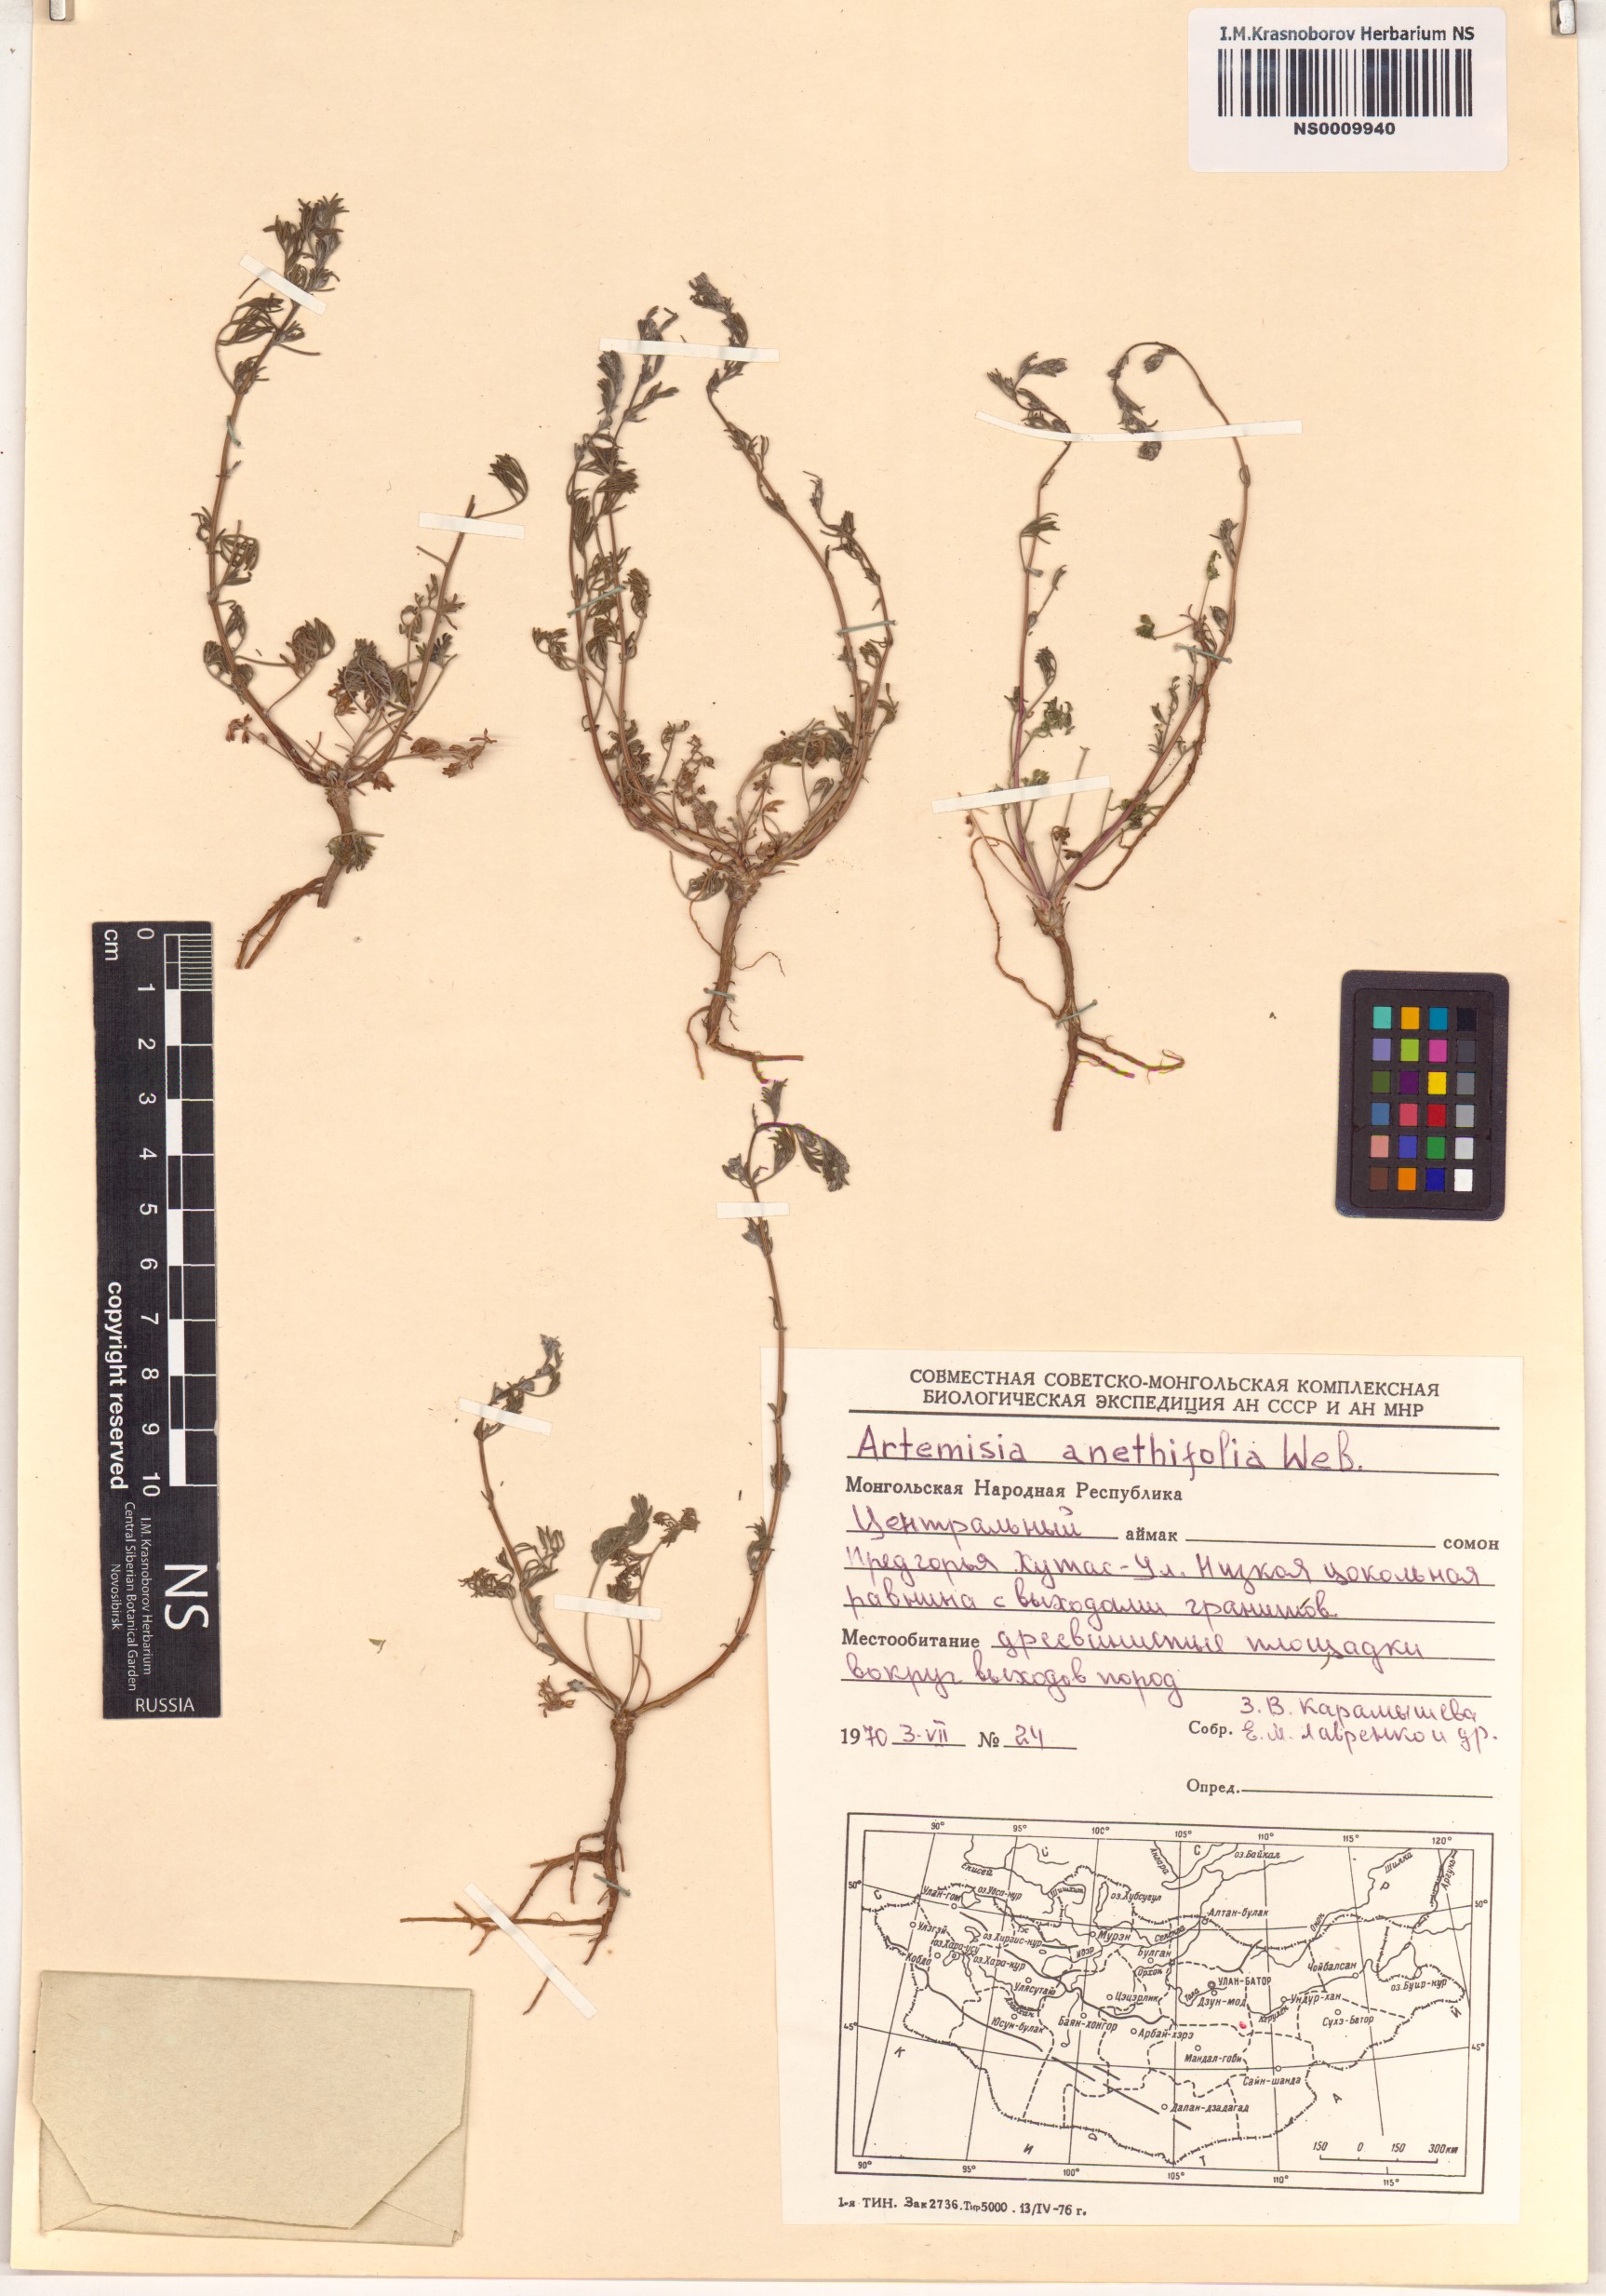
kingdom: Plantae
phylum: Tracheophyta
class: Magnoliopsida
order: Asterales
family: Asteraceae
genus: Artemisia
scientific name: Artemisia anethifolia
